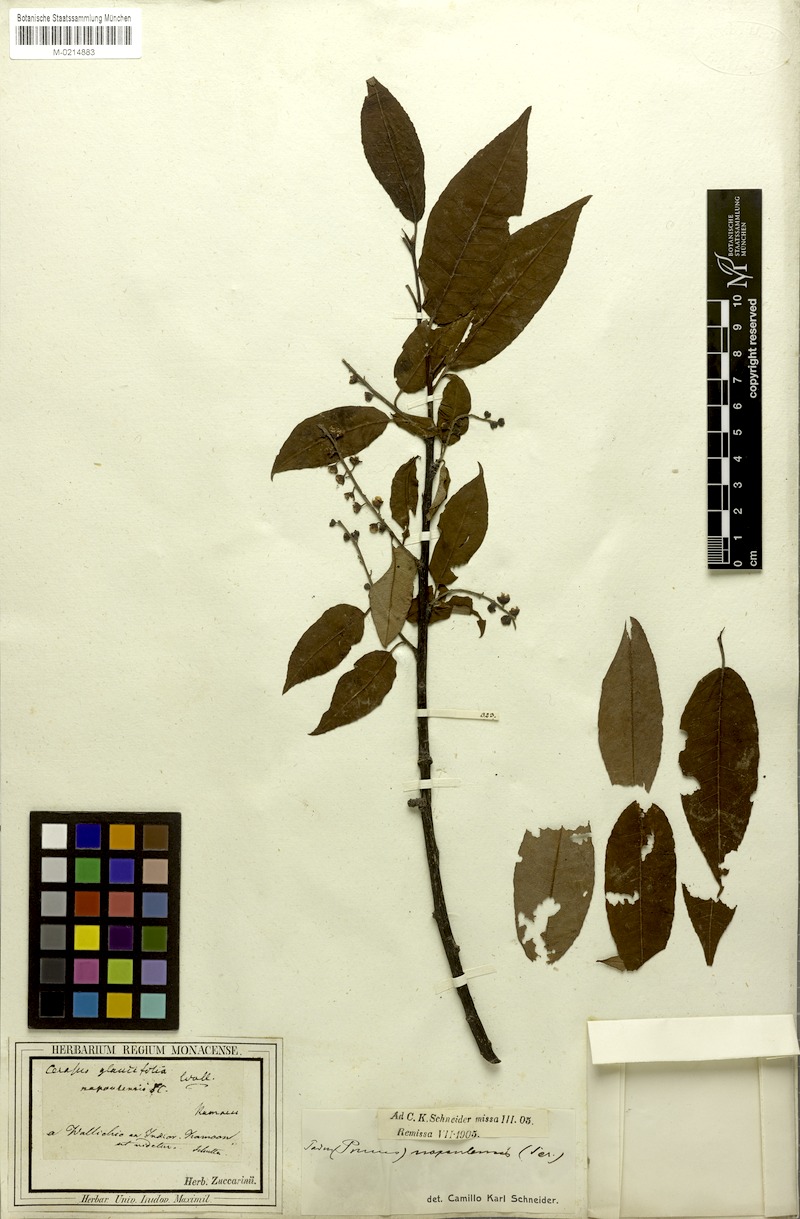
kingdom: Plantae
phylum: Tracheophyta
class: Magnoliopsida
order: Rosales
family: Rosaceae
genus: Prunus
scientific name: Prunus napaulensis
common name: Khasia cherry
